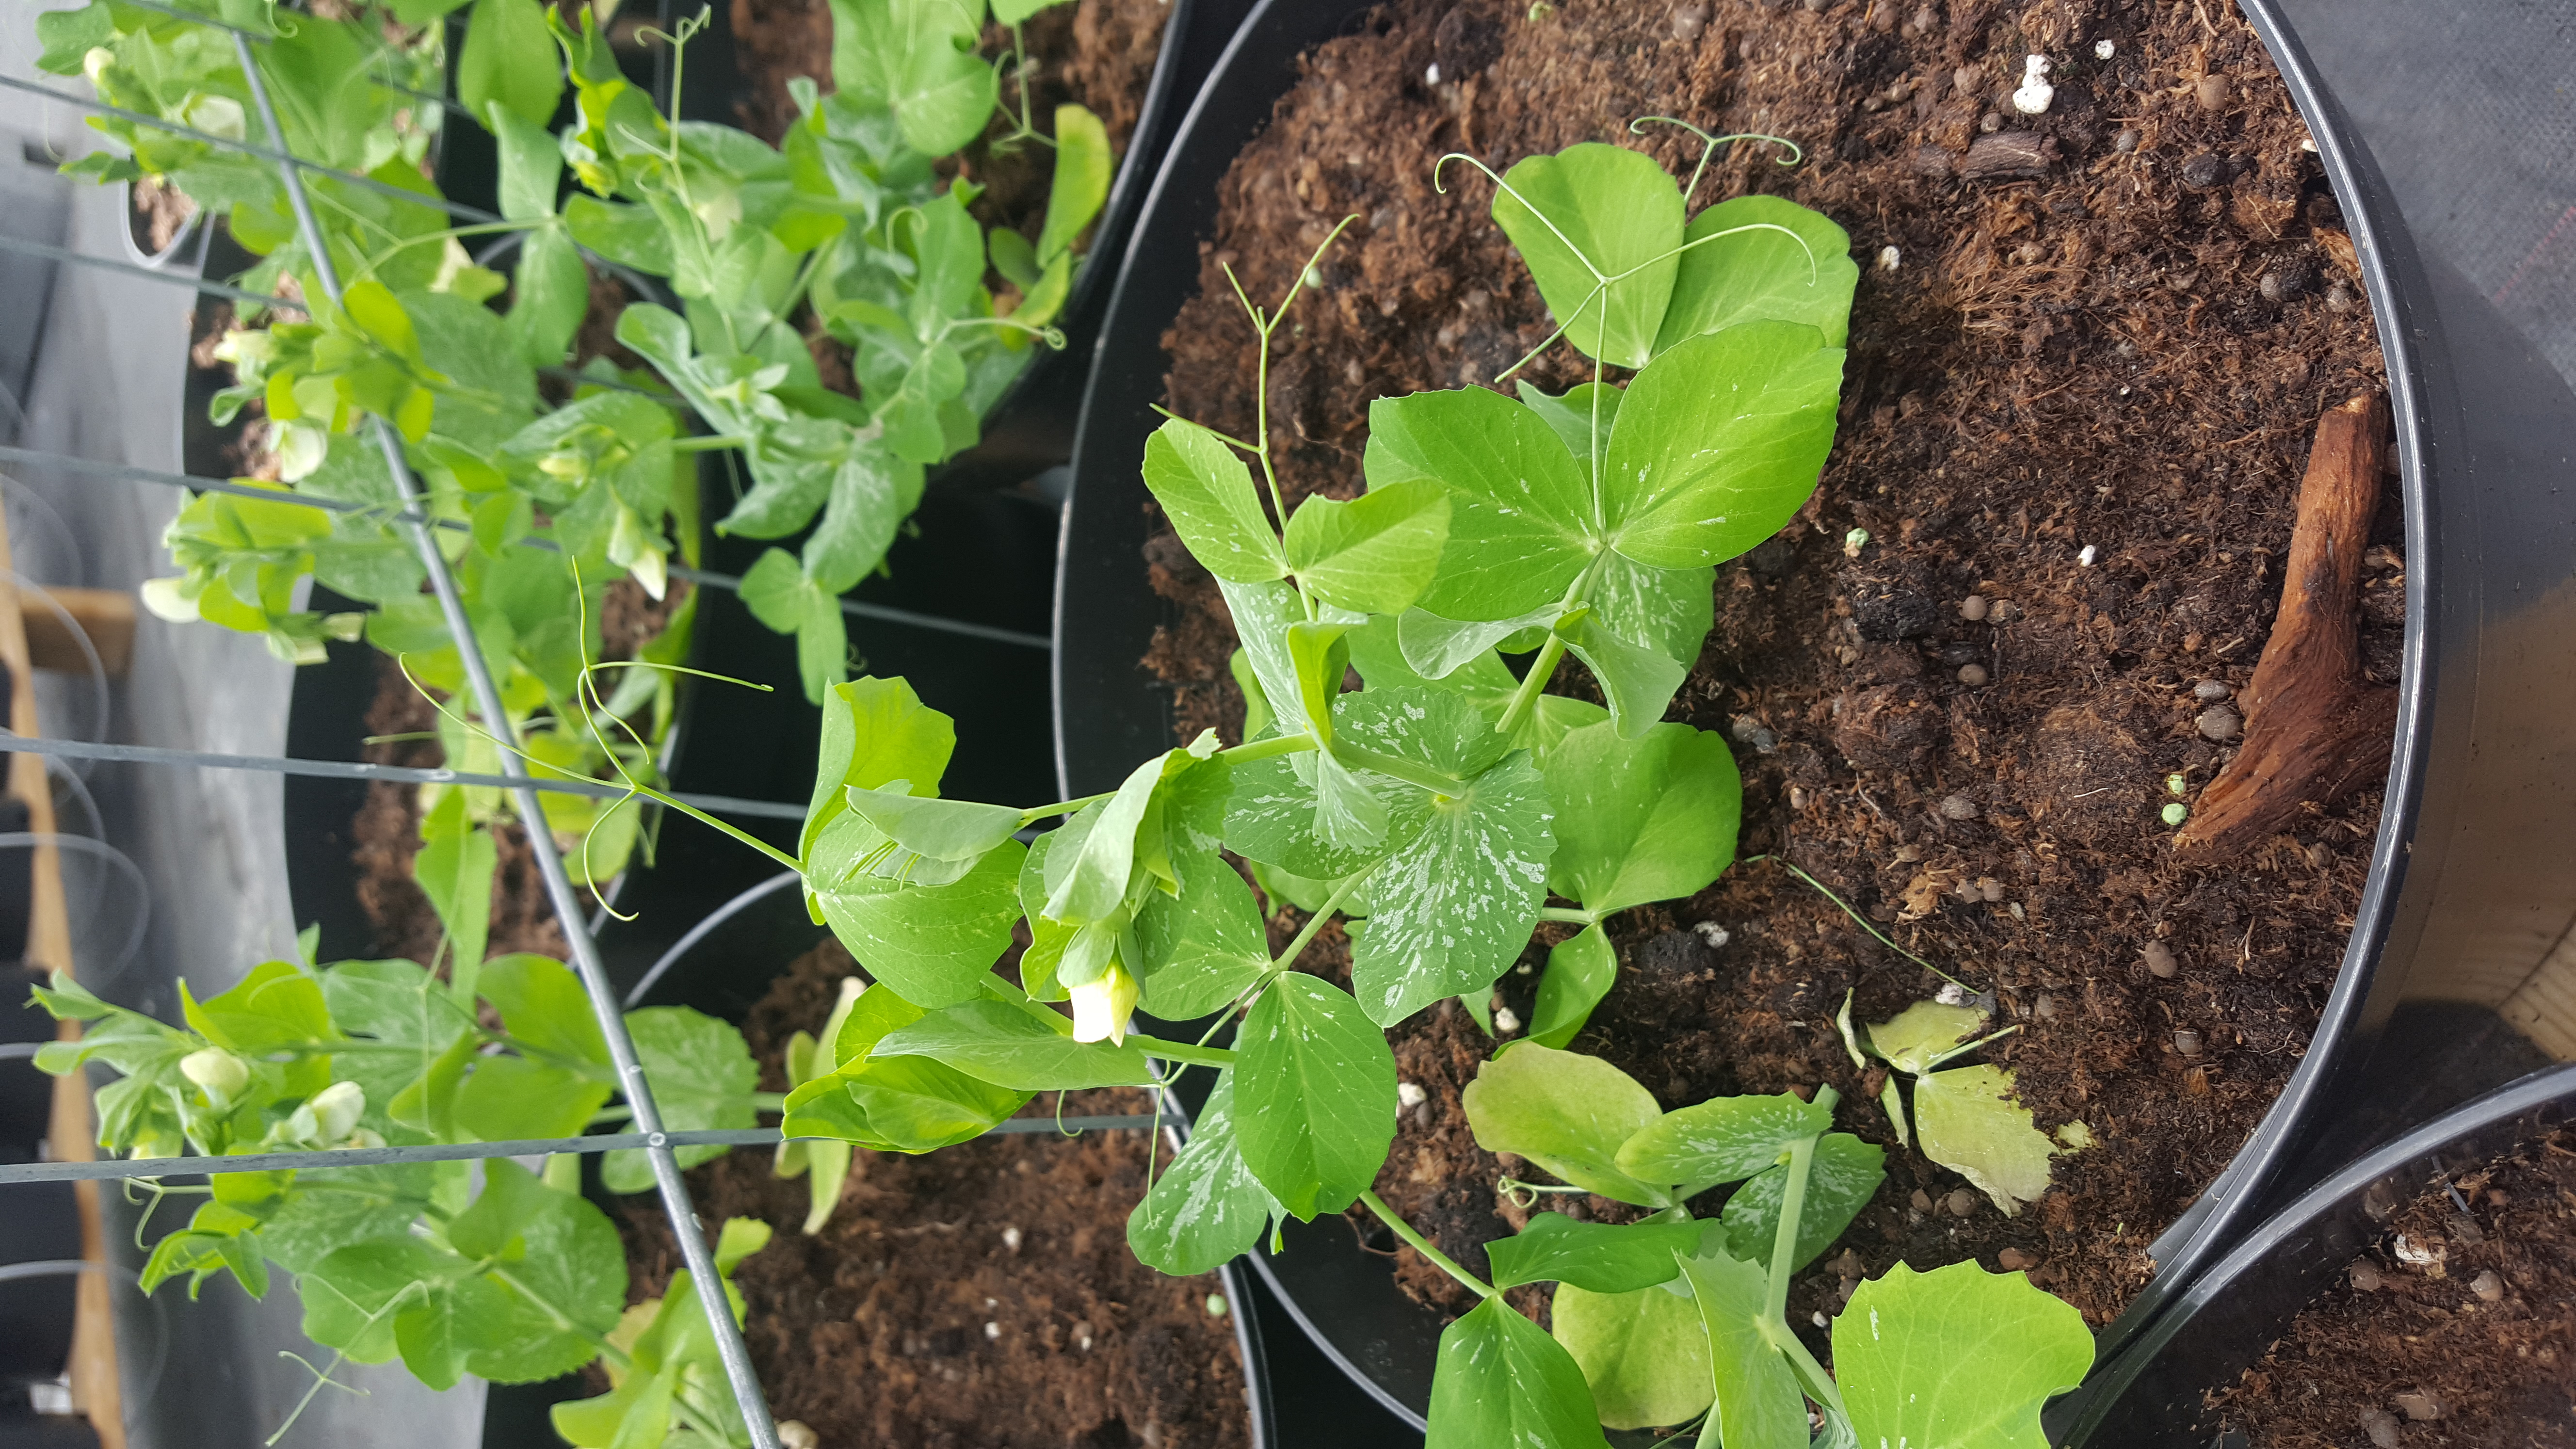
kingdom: Plantae
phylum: Tracheophyta
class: Magnoliopsida
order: Fabales
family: Fabaceae
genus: Lathyrus
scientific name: Lathyrus oleraceus
